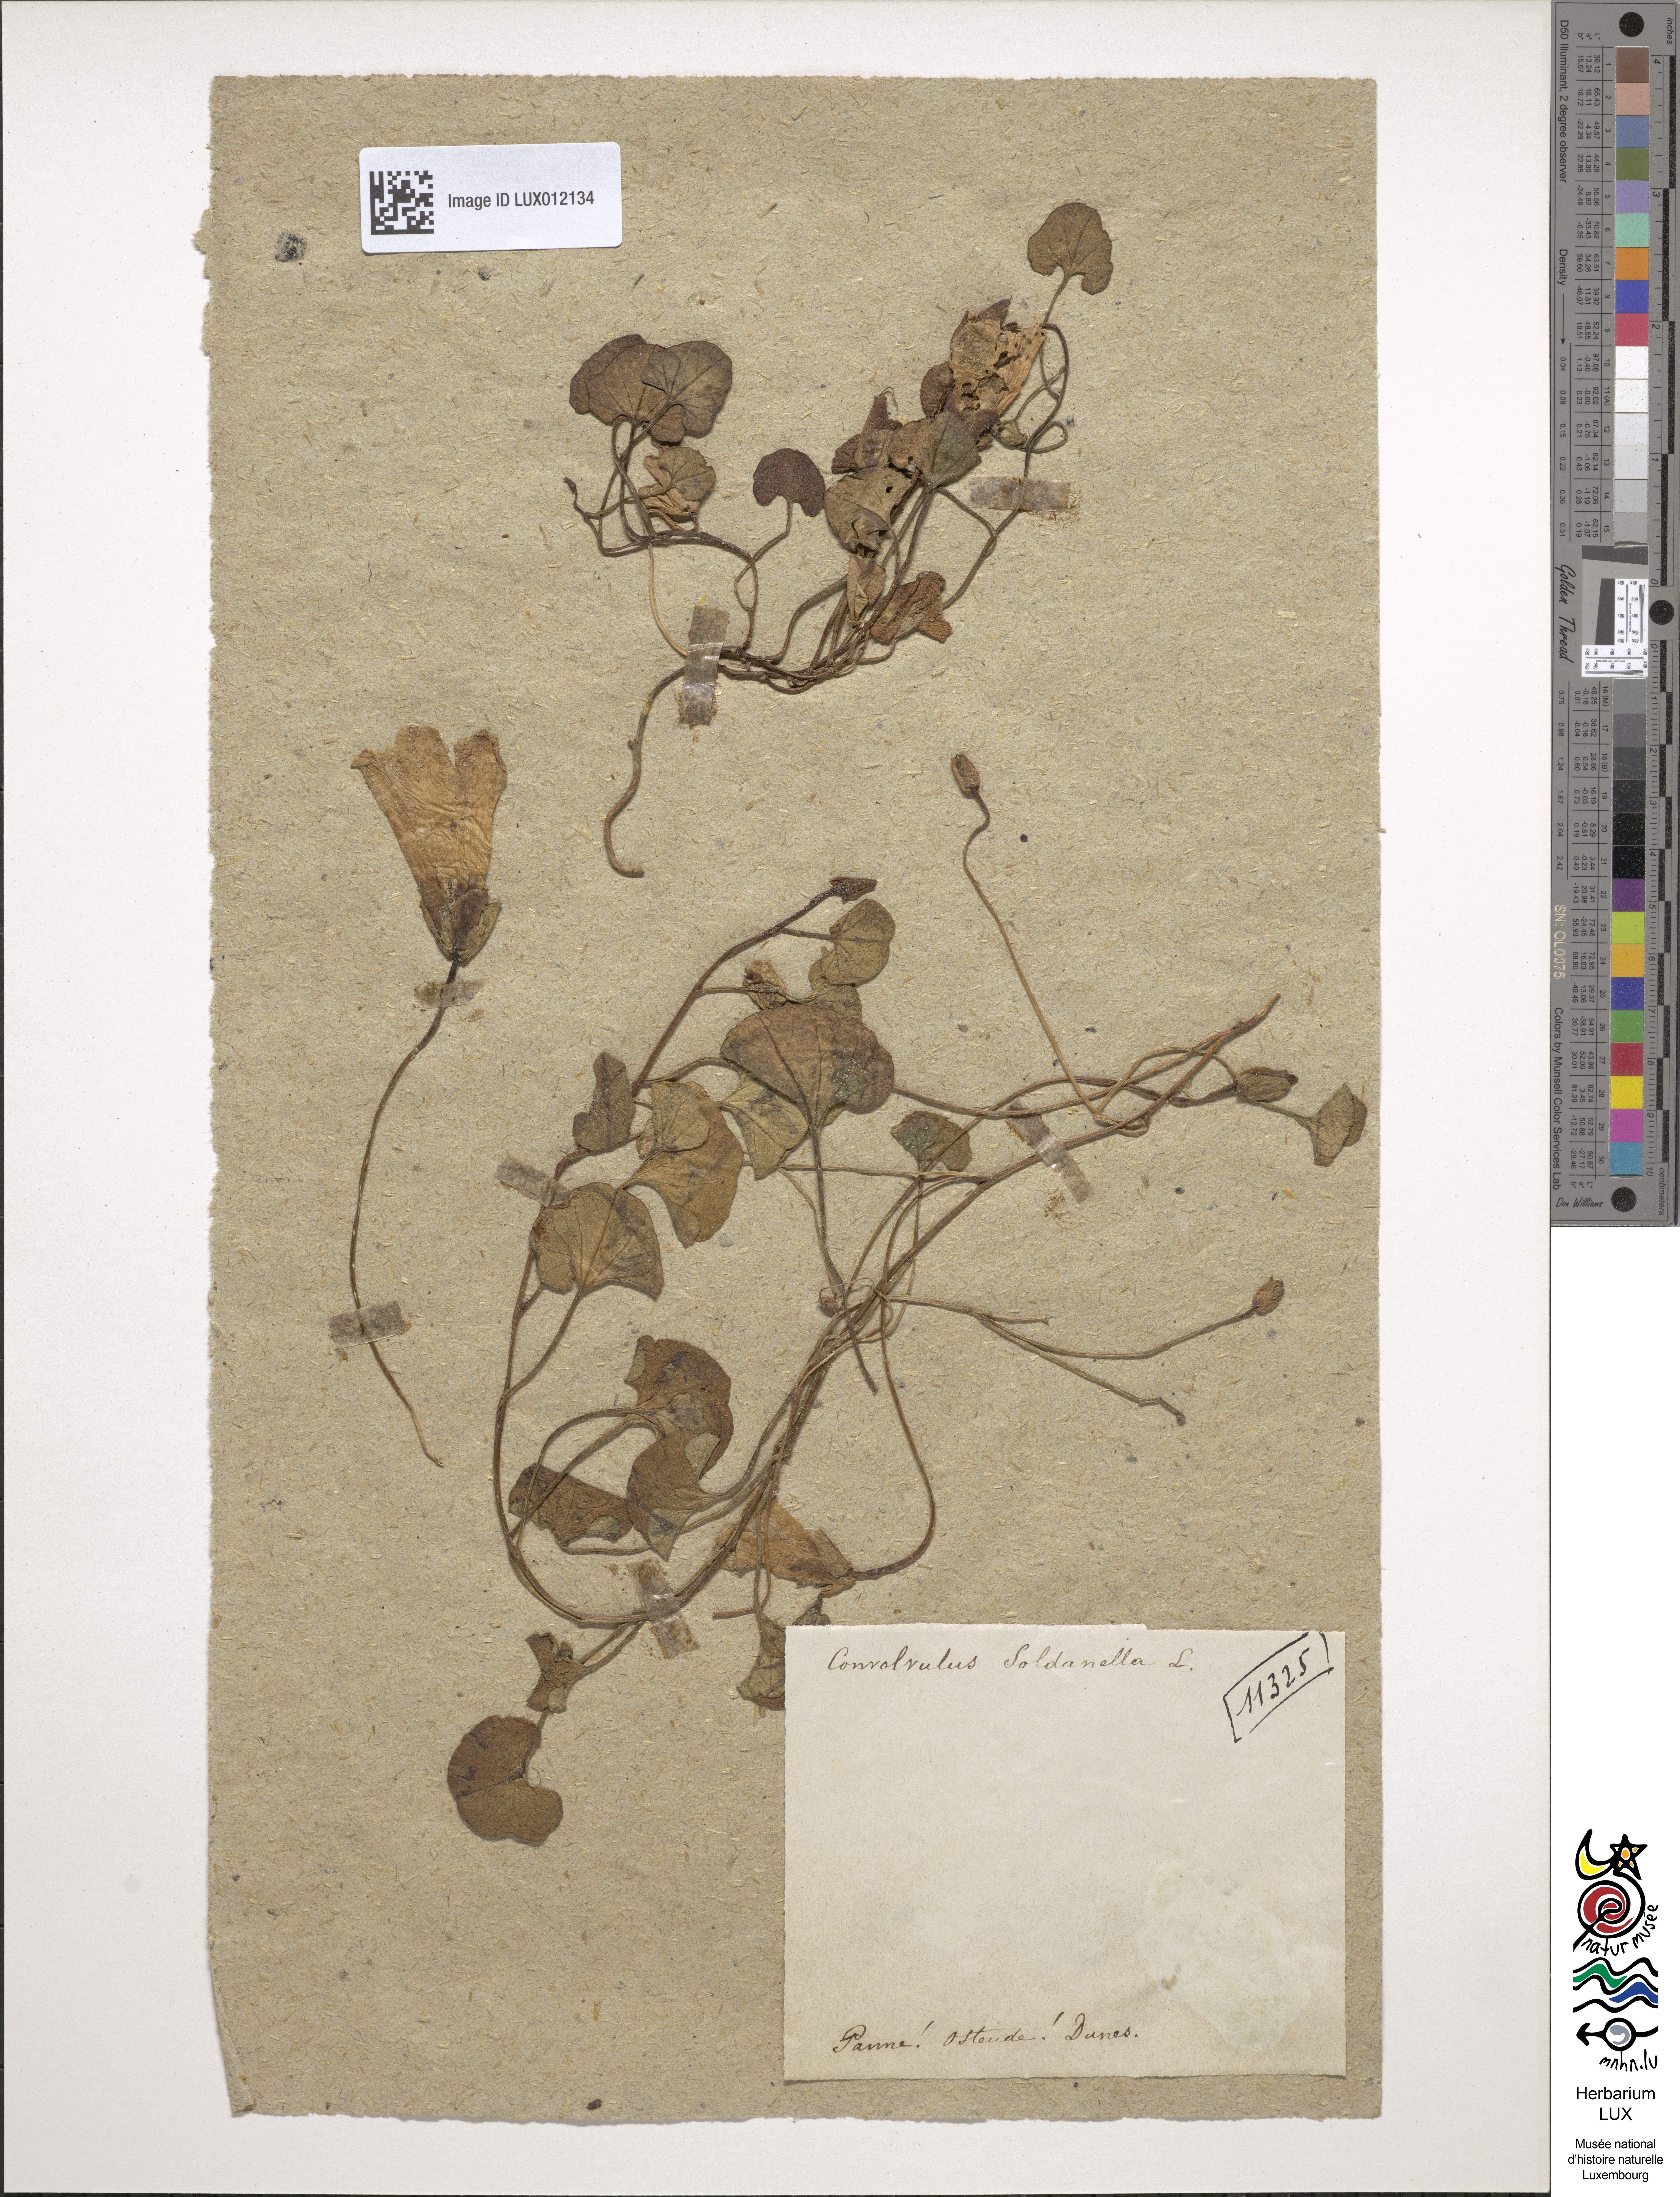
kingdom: Plantae
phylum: Tracheophyta
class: Magnoliopsida
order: Solanales
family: Convolvulaceae
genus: Calystegia
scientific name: Calystegia soldanella
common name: Sea bindweed
